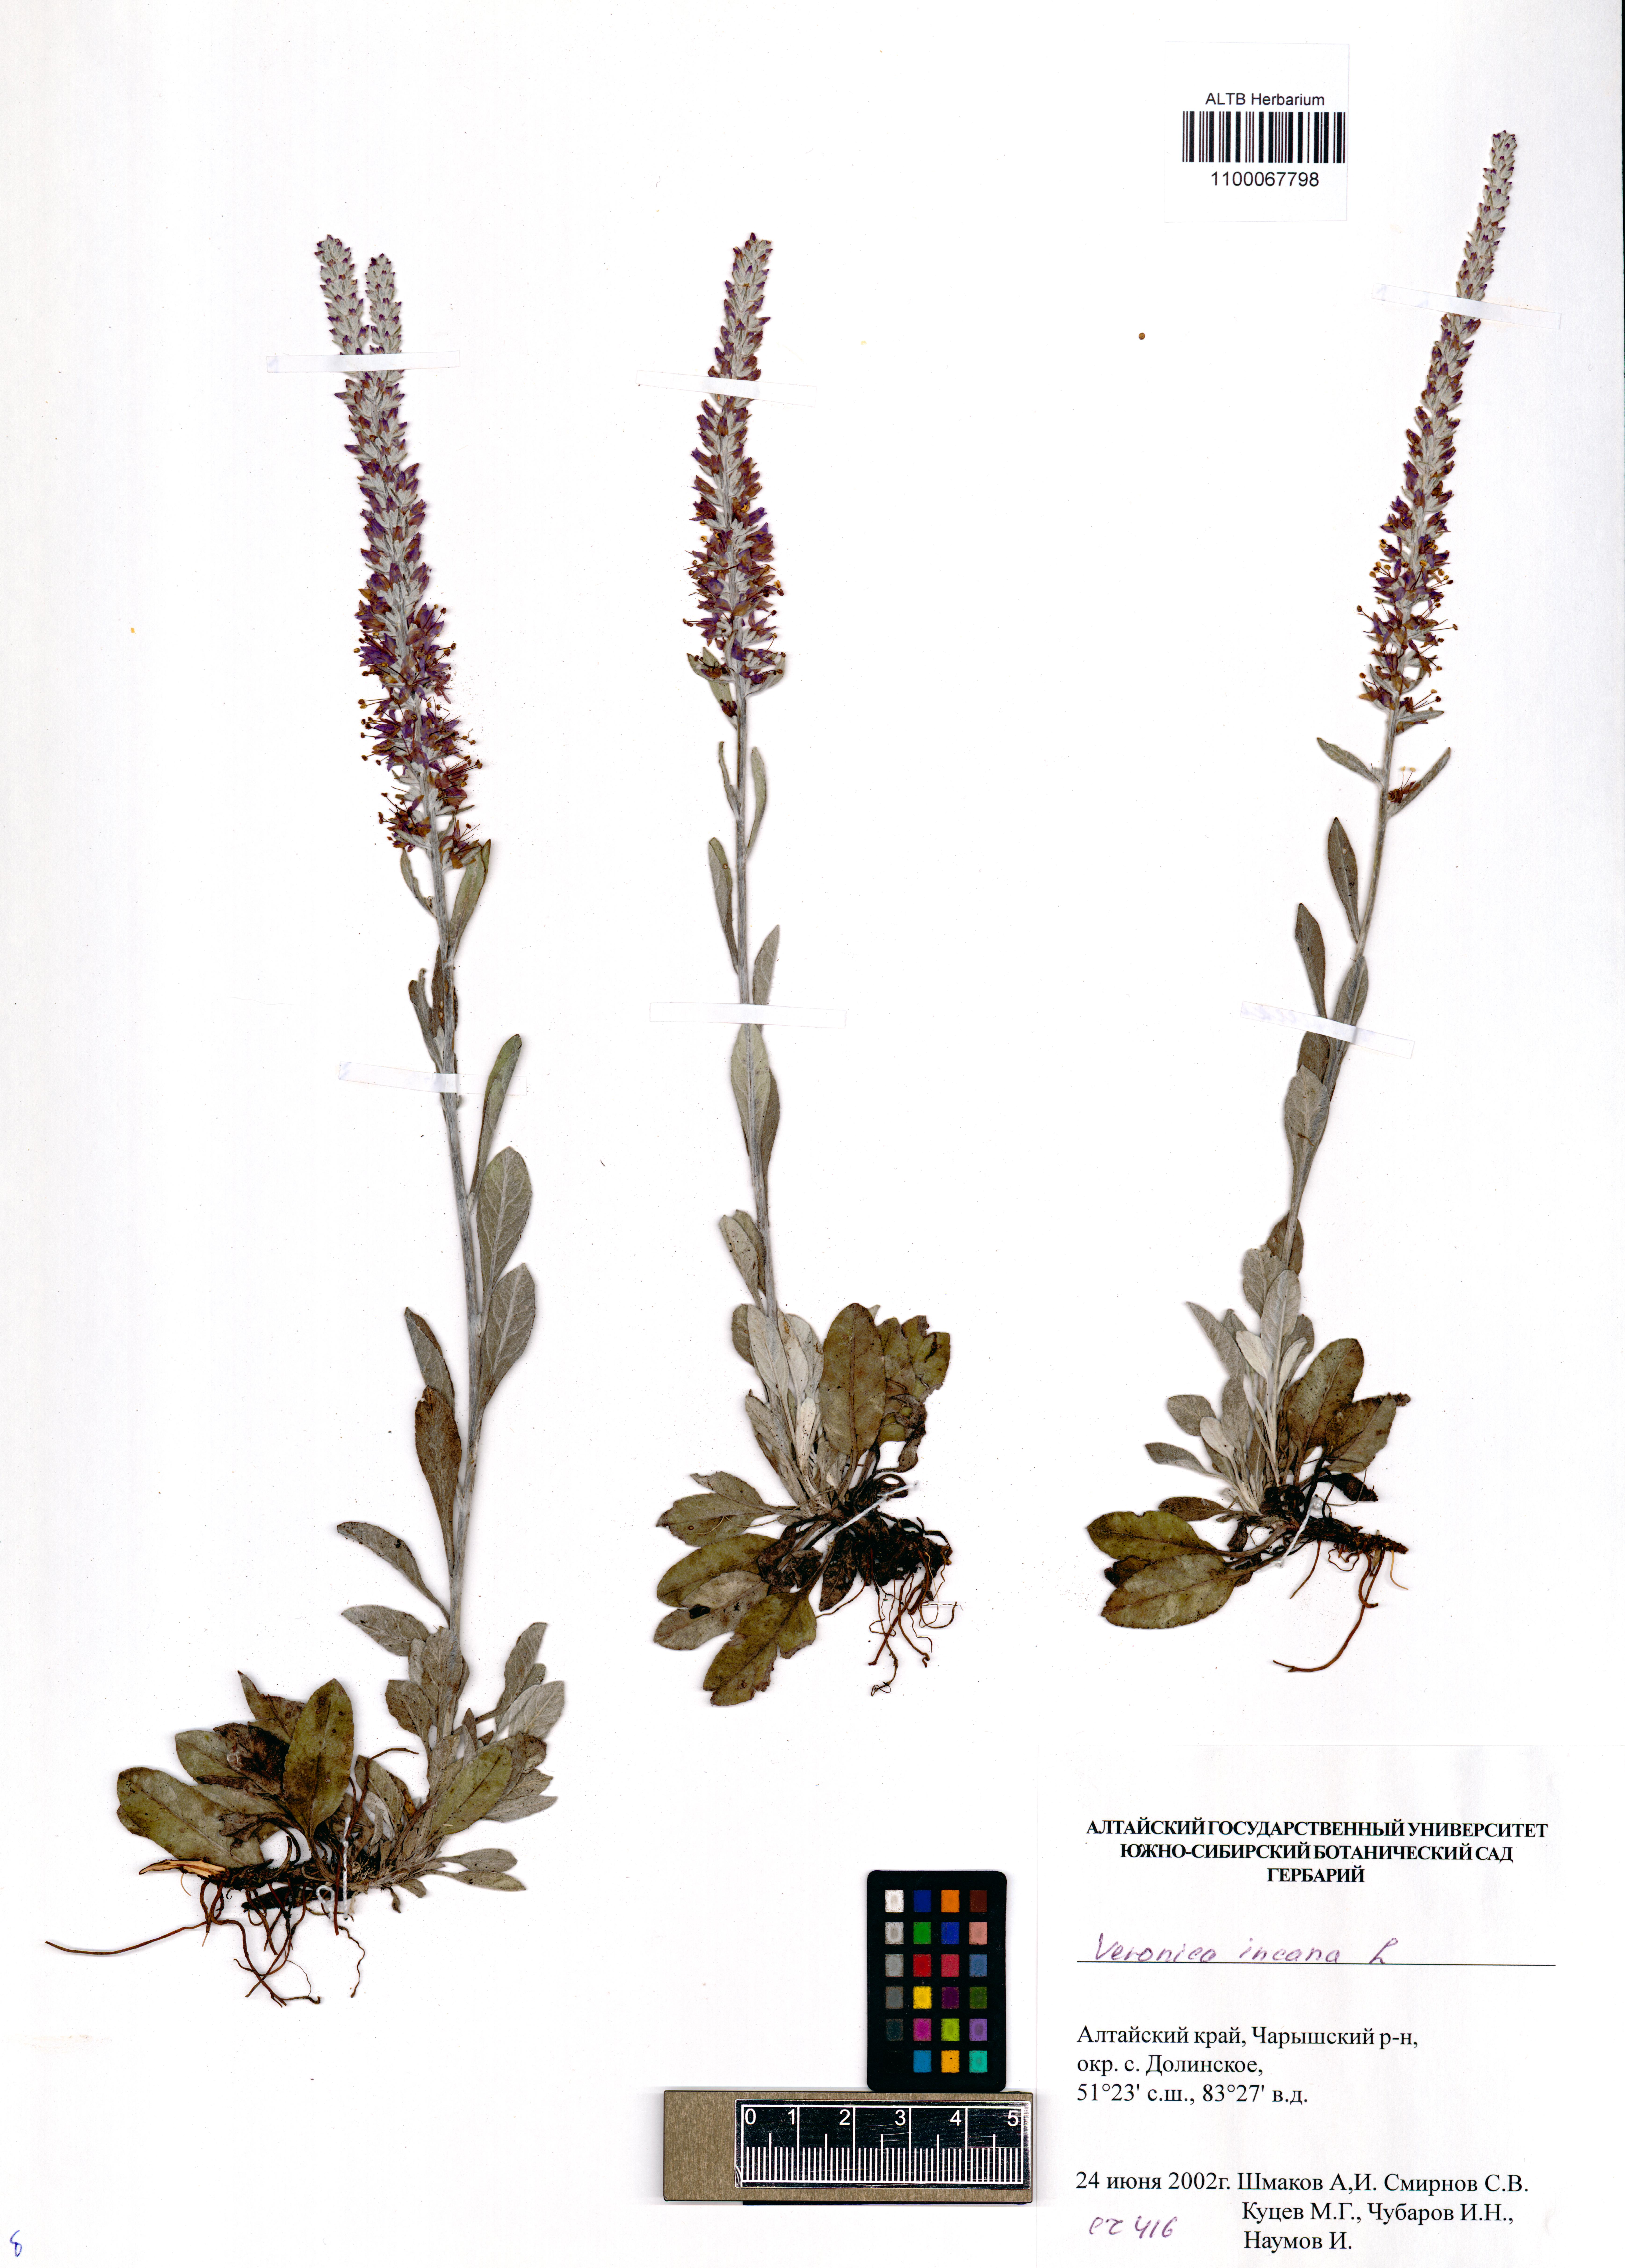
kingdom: Plantae
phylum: Tracheophyta
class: Magnoliopsida
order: Lamiales
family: Plantaginaceae
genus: Veronica
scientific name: Veronica incana
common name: Silver speedwell
